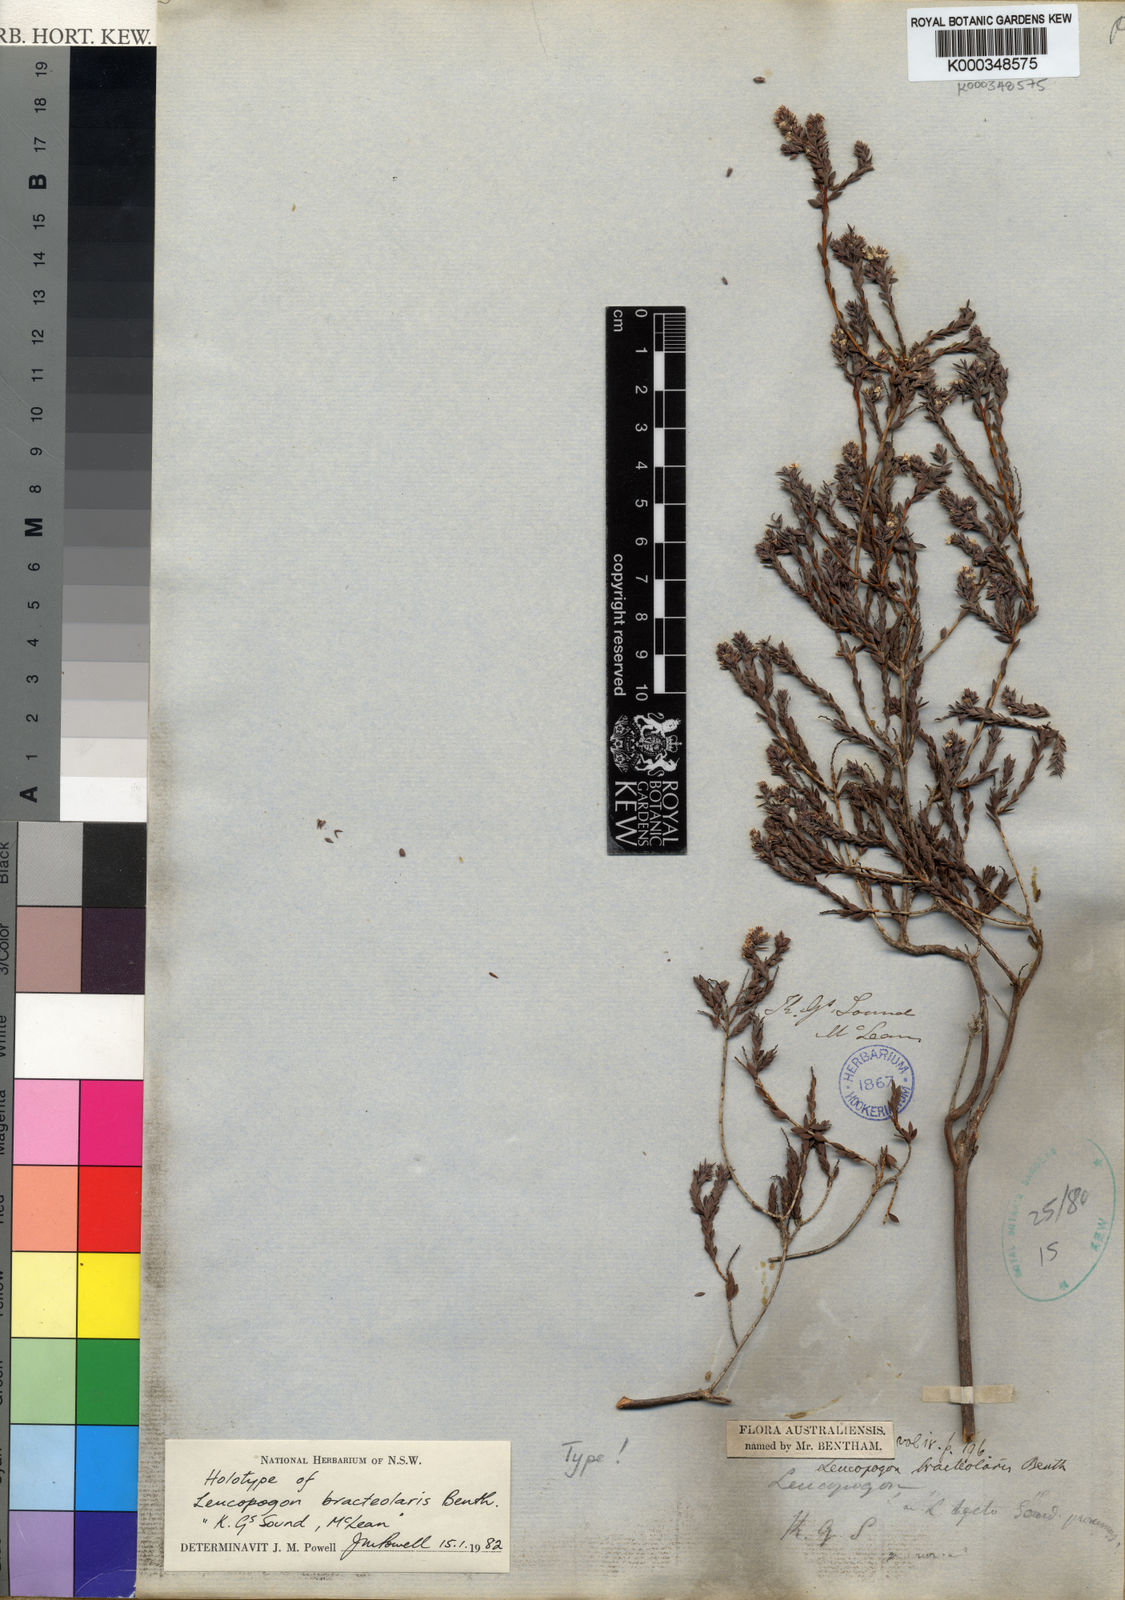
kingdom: Plantae
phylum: Tracheophyta
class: Magnoliopsida
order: Ericales
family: Ericaceae
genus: Leucopogon
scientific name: Leucopogon bracteolaris
